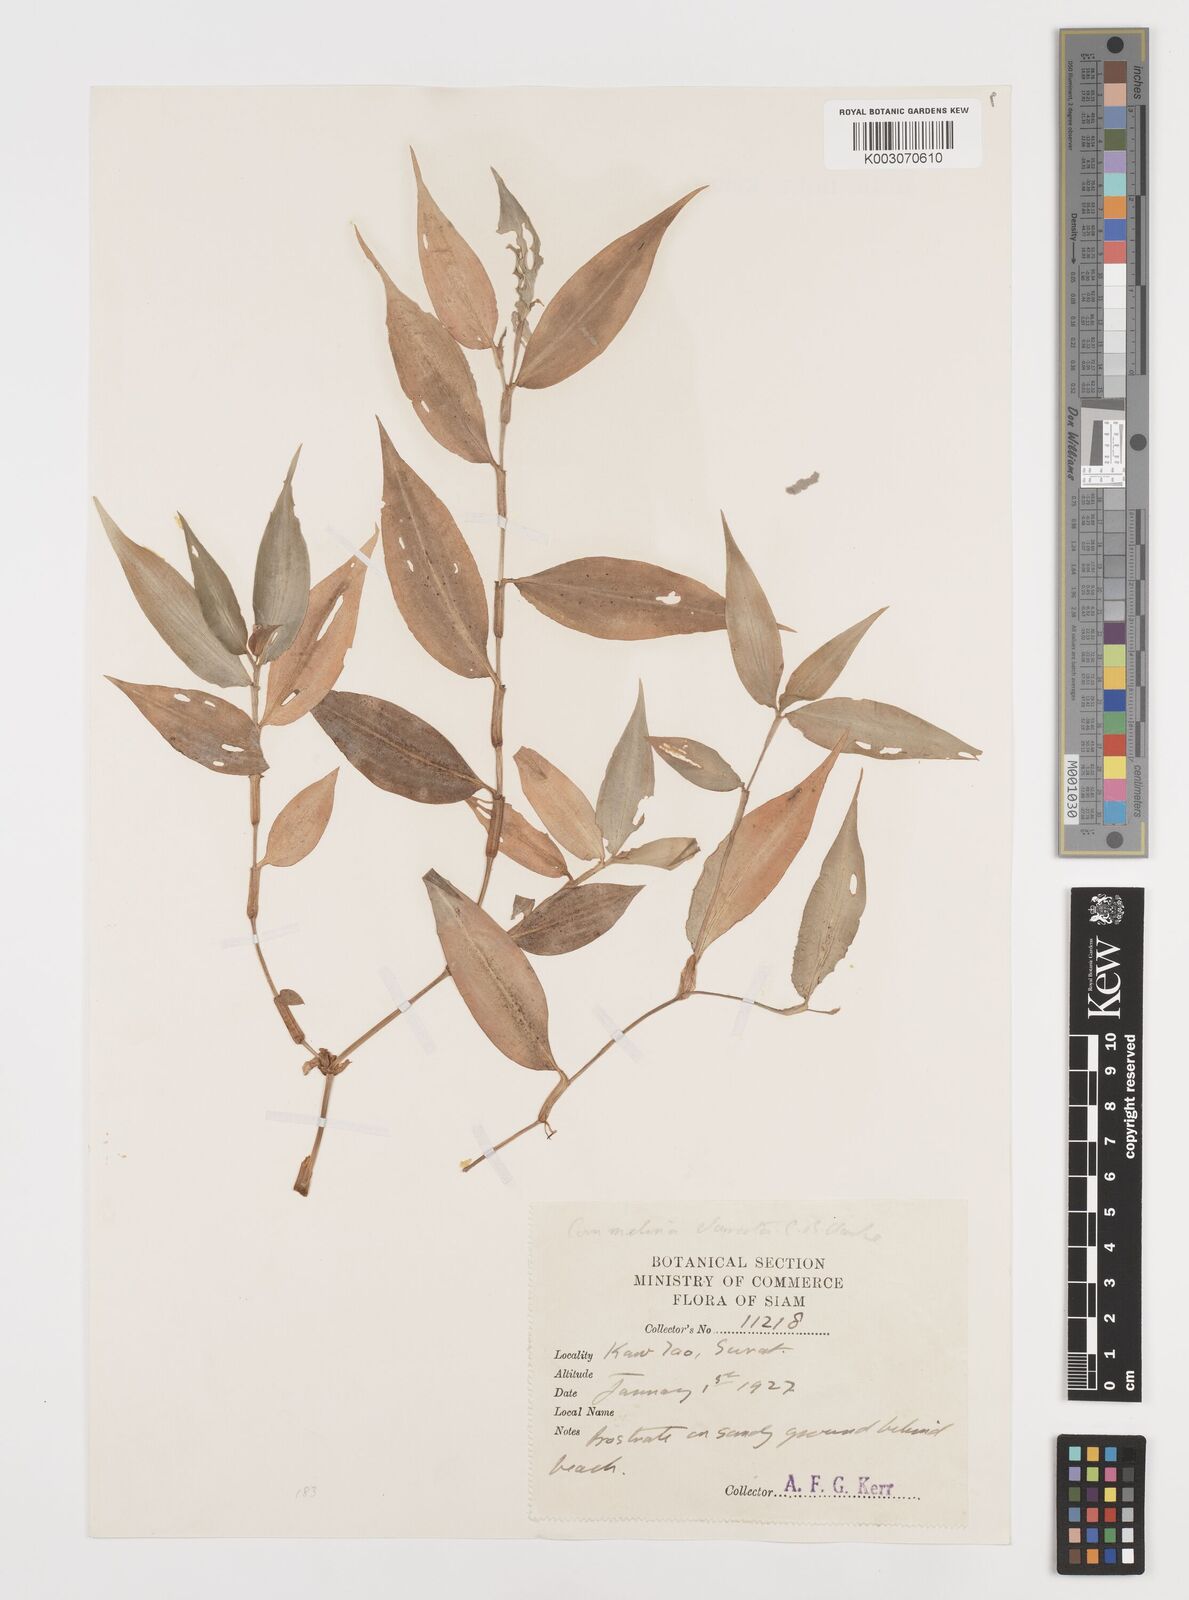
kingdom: Plantae
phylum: Tracheophyta
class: Liliopsida
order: Commelinales
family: Commelinaceae
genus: Commelina
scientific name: Commelina clavata
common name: Willow leaved dayflower
